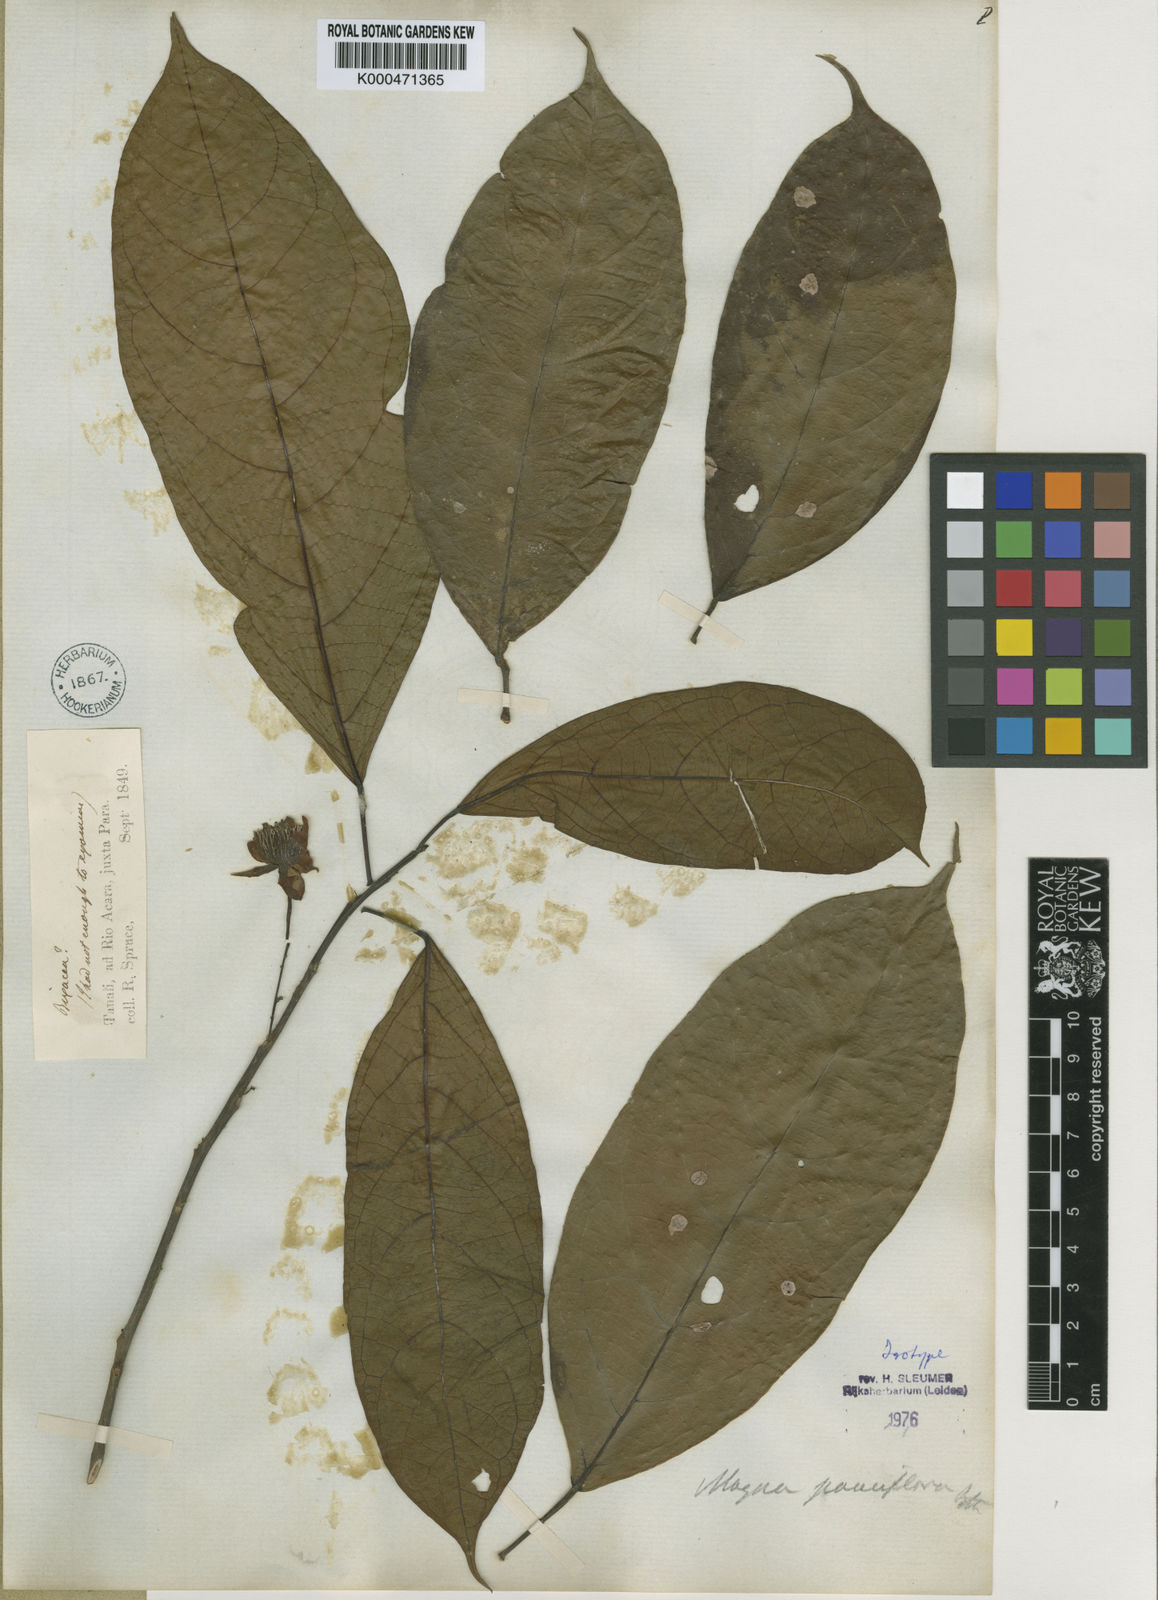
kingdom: Plantae
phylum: Tracheophyta
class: Magnoliopsida
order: Malpighiales
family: Achariaceae
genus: Lindackeria
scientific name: Lindackeria pauciflora
